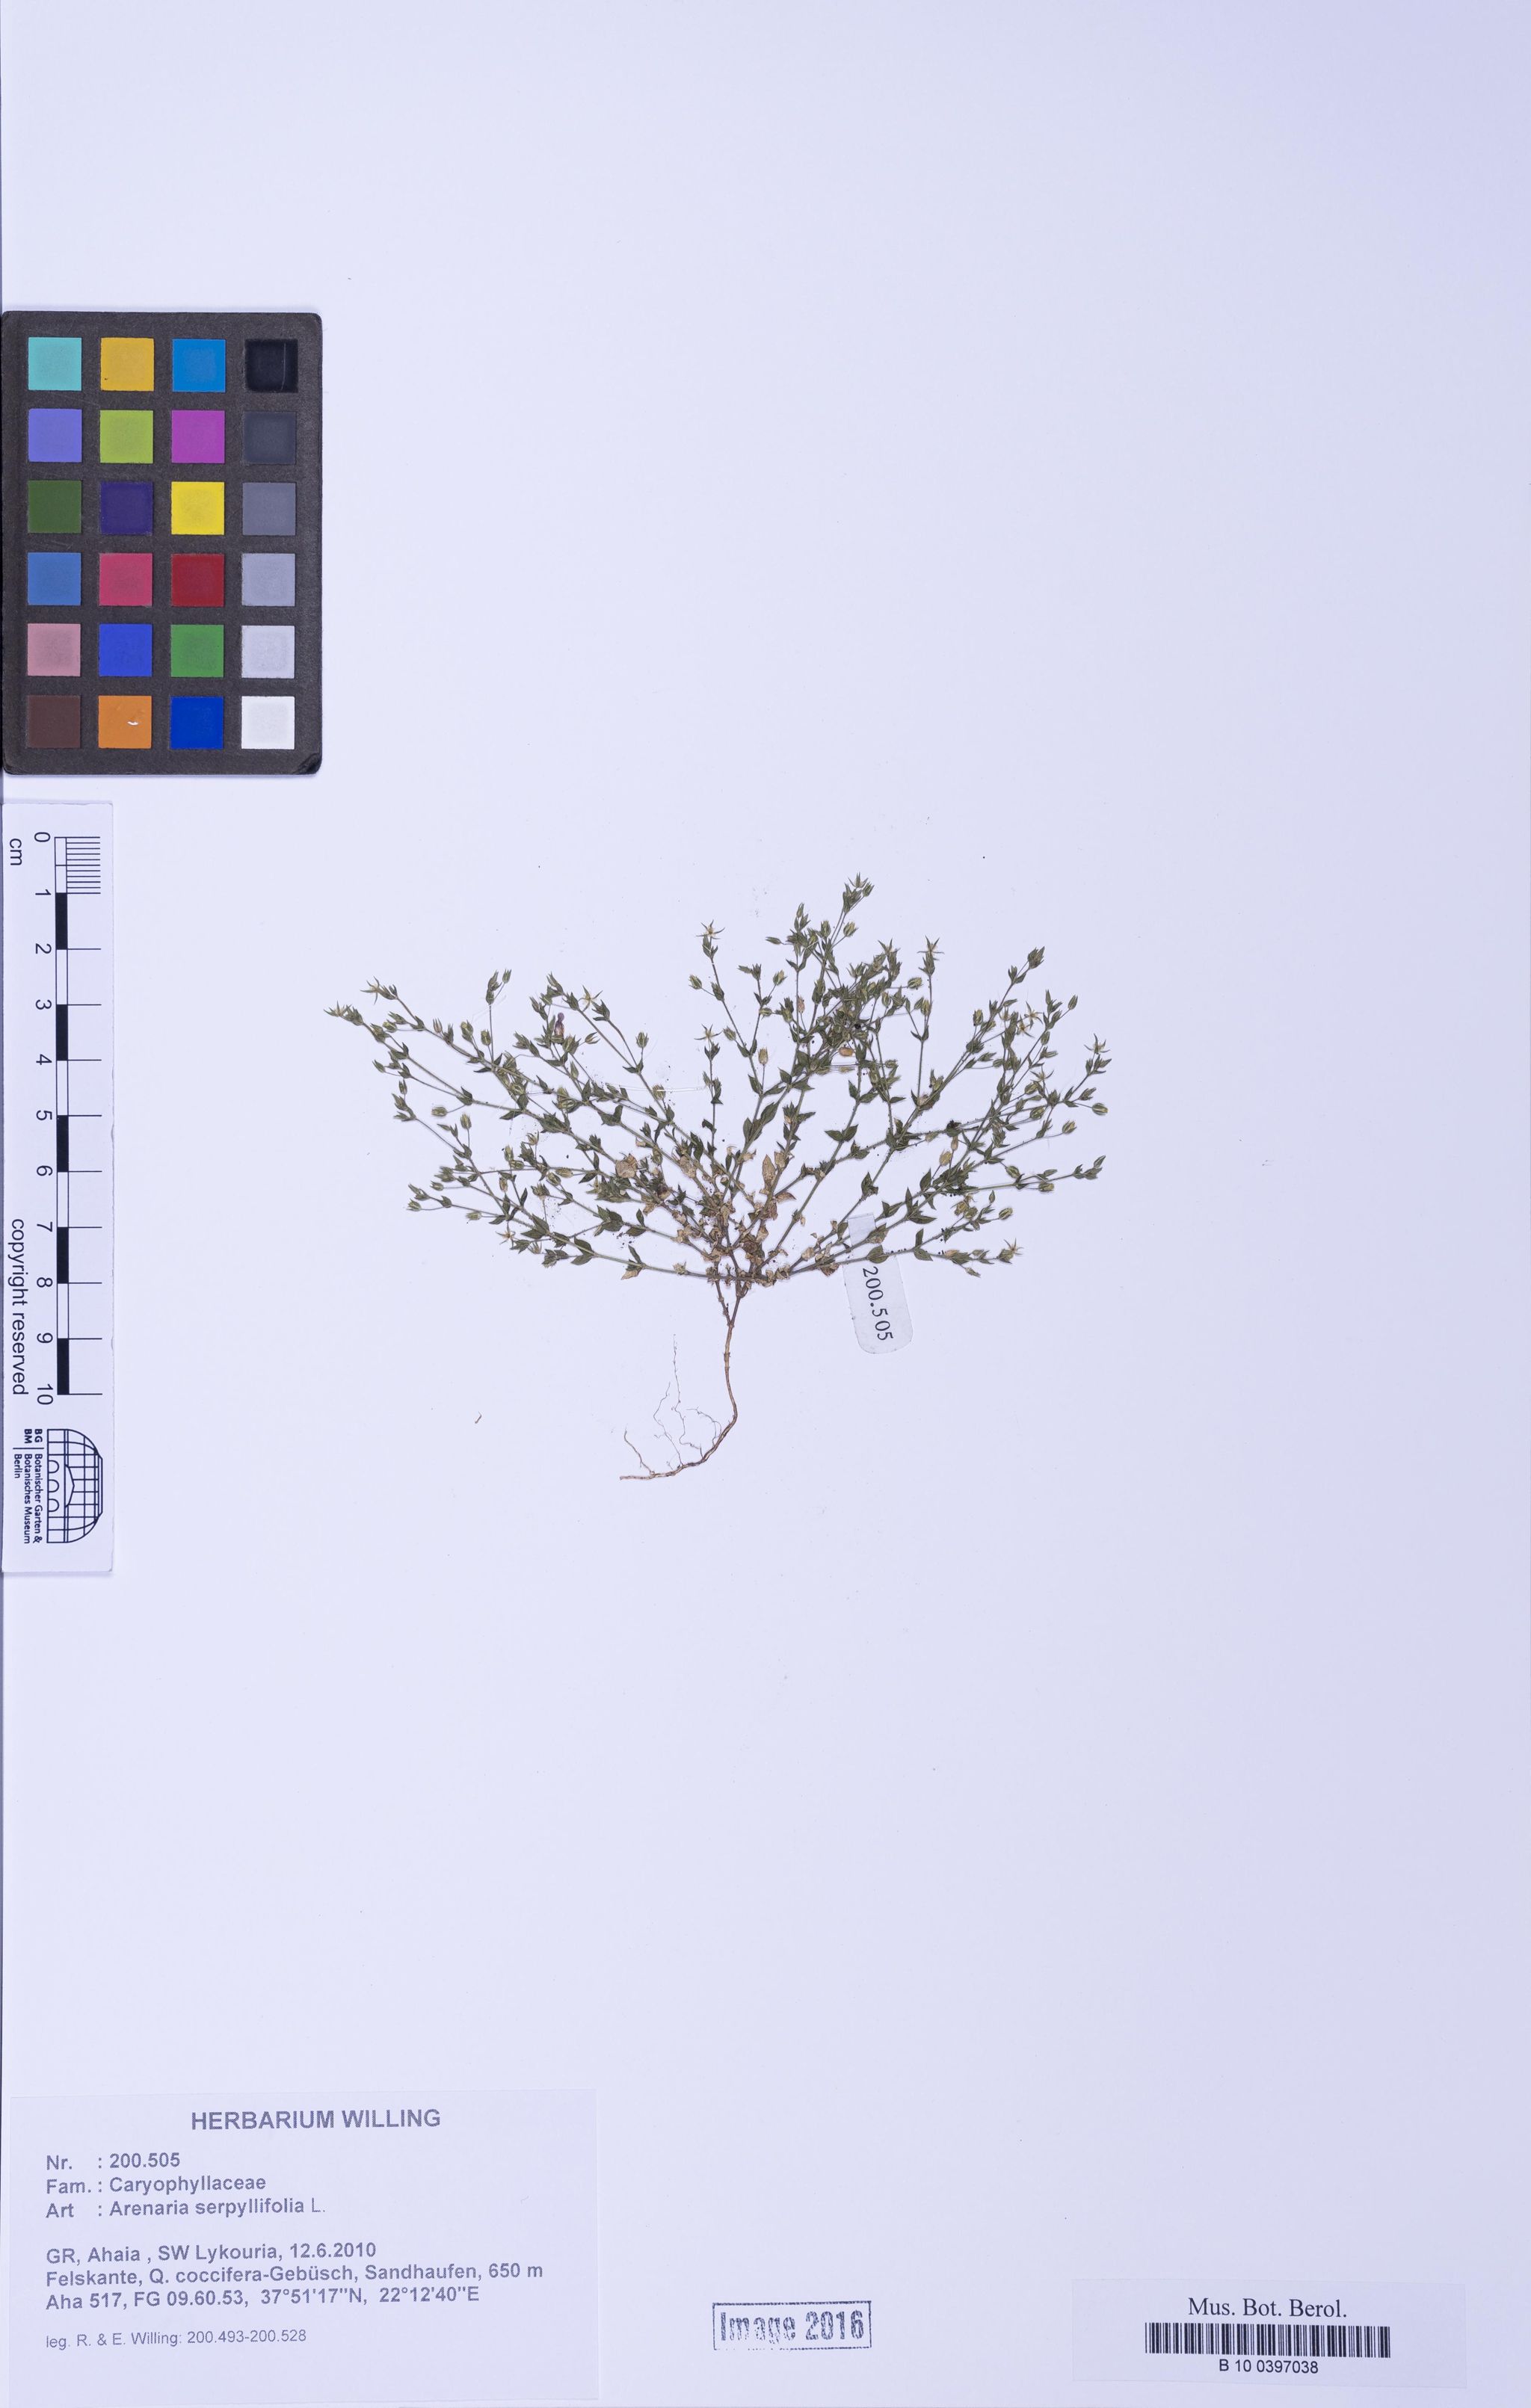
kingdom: Plantae
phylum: Tracheophyta
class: Magnoliopsida
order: Caryophyllales
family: Caryophyllaceae
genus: Arenaria
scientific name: Arenaria serpyllifolia
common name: Thyme-leaved sandwort
